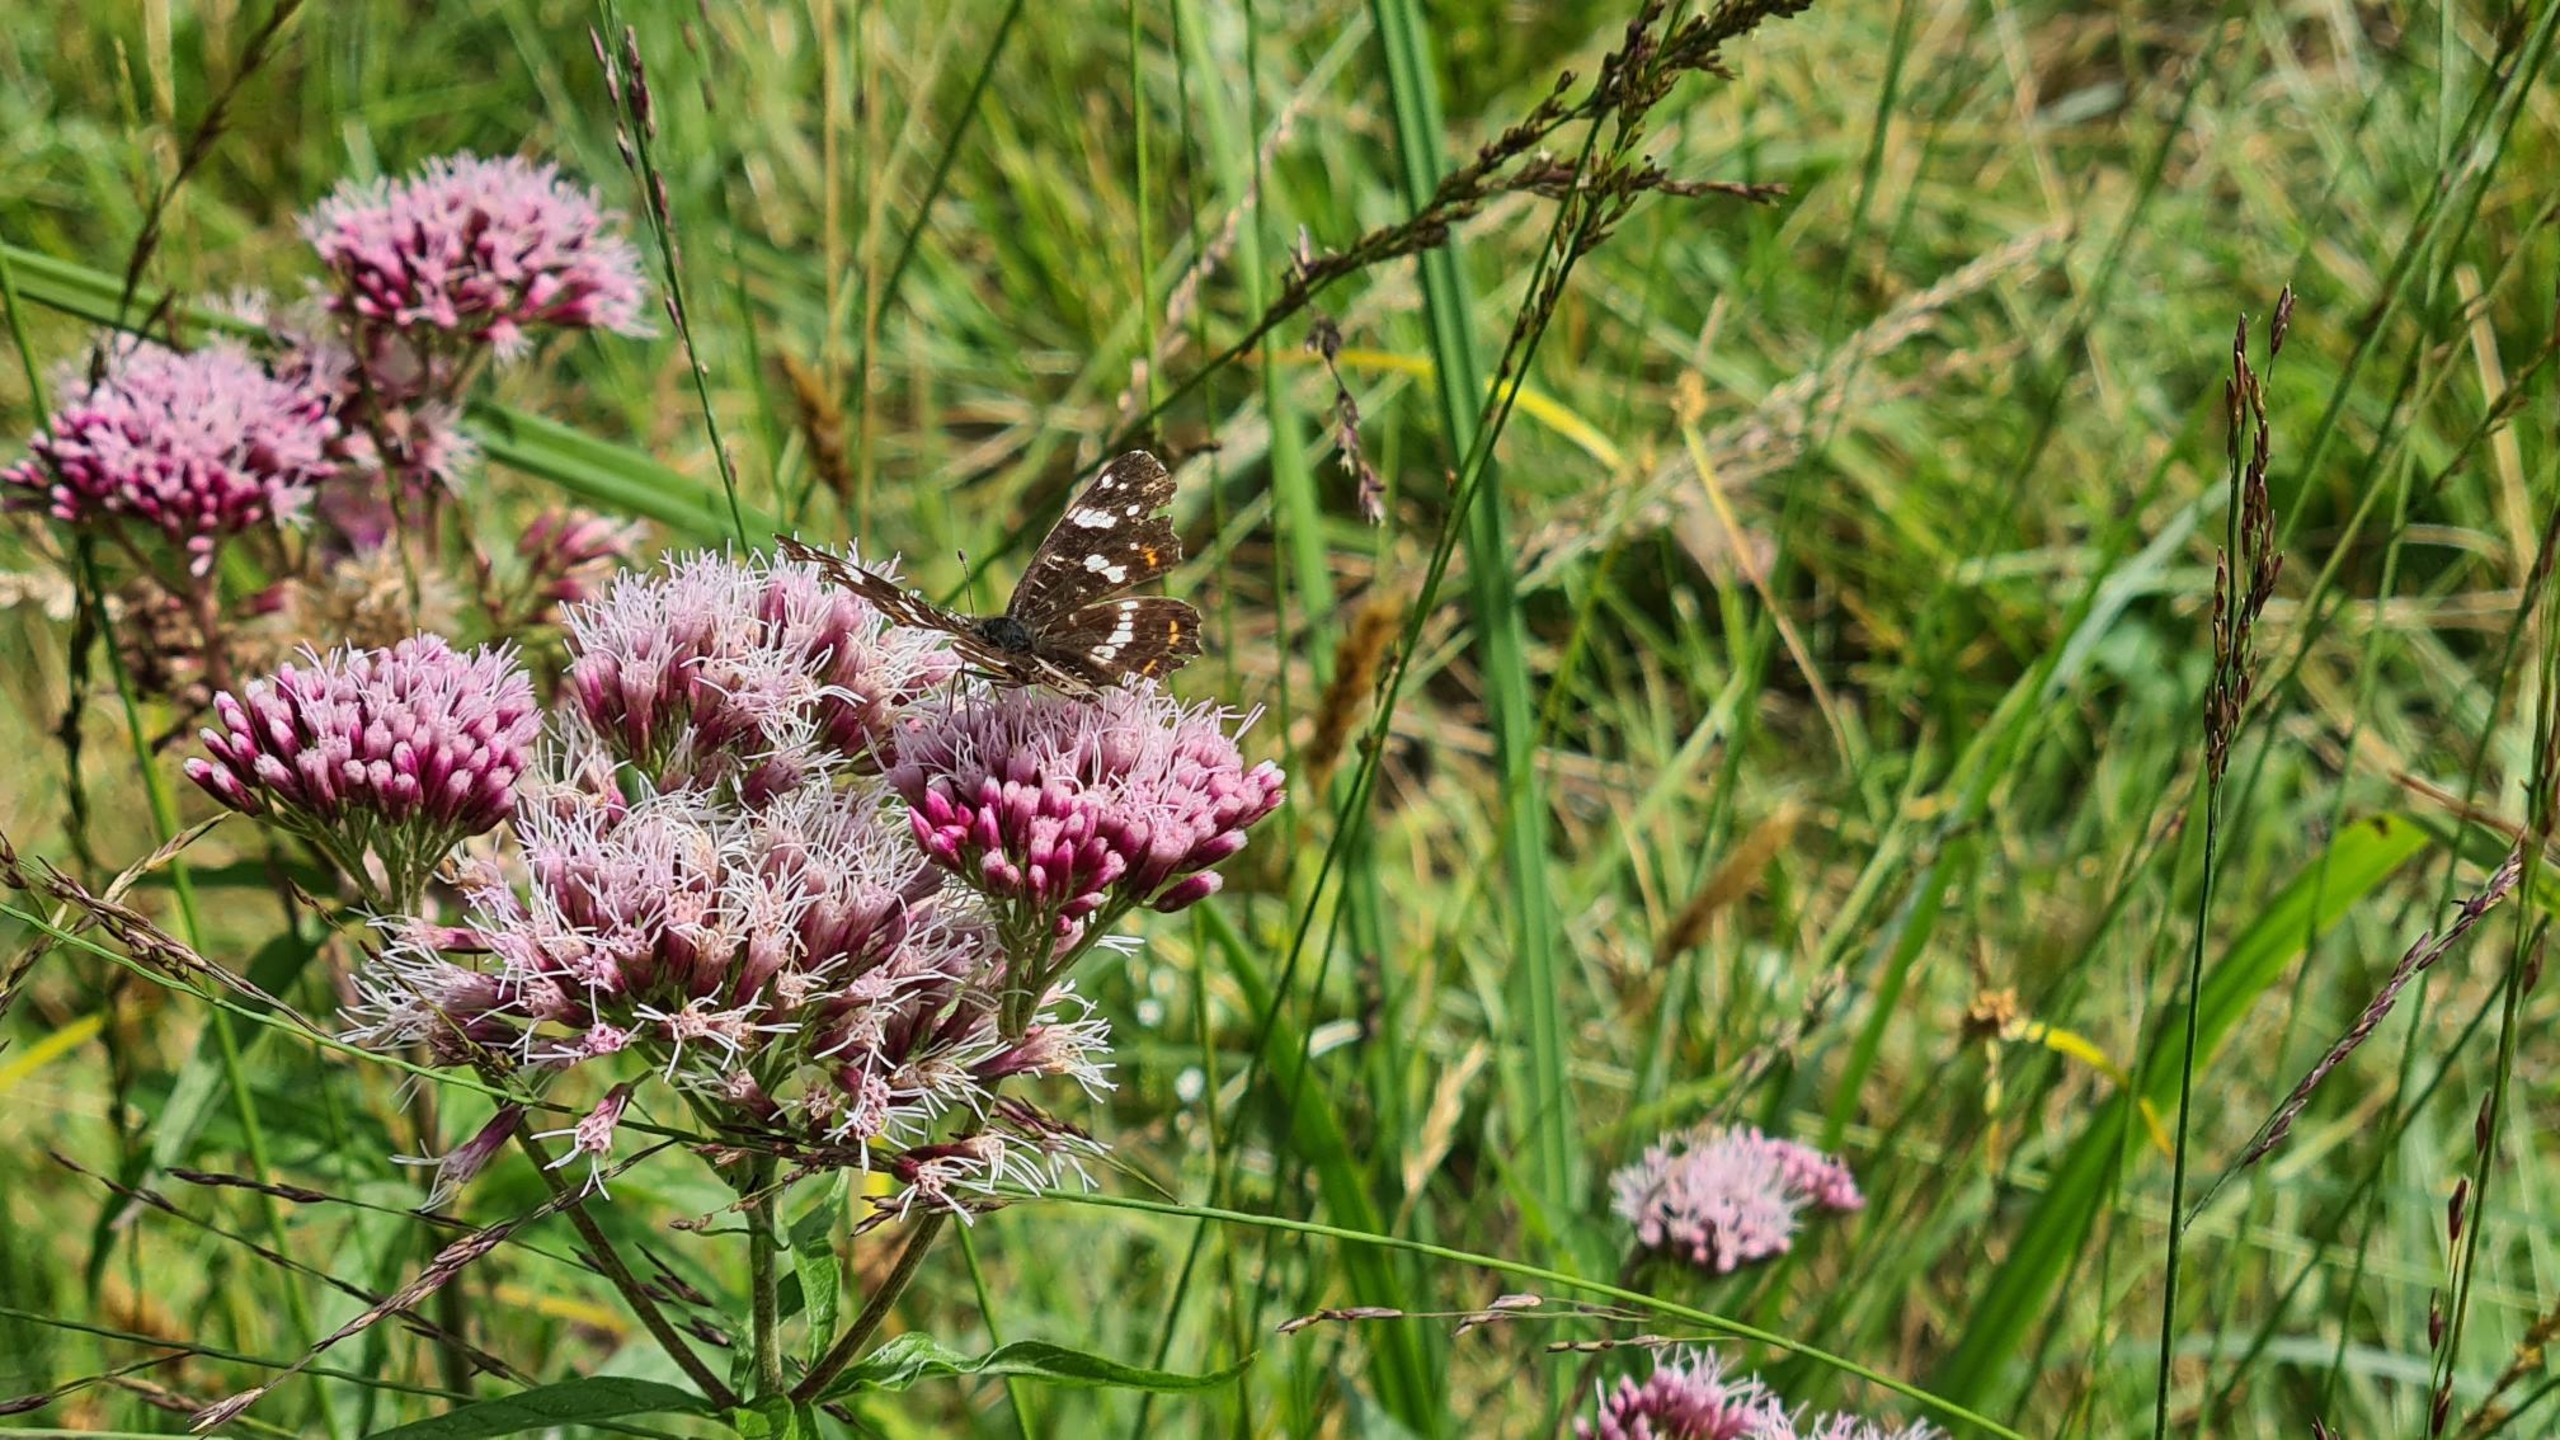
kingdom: Animalia
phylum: Arthropoda
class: Insecta
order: Lepidoptera
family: Nymphalidae
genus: Araschnia
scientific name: Araschnia levana
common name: Nældesommerfugl
